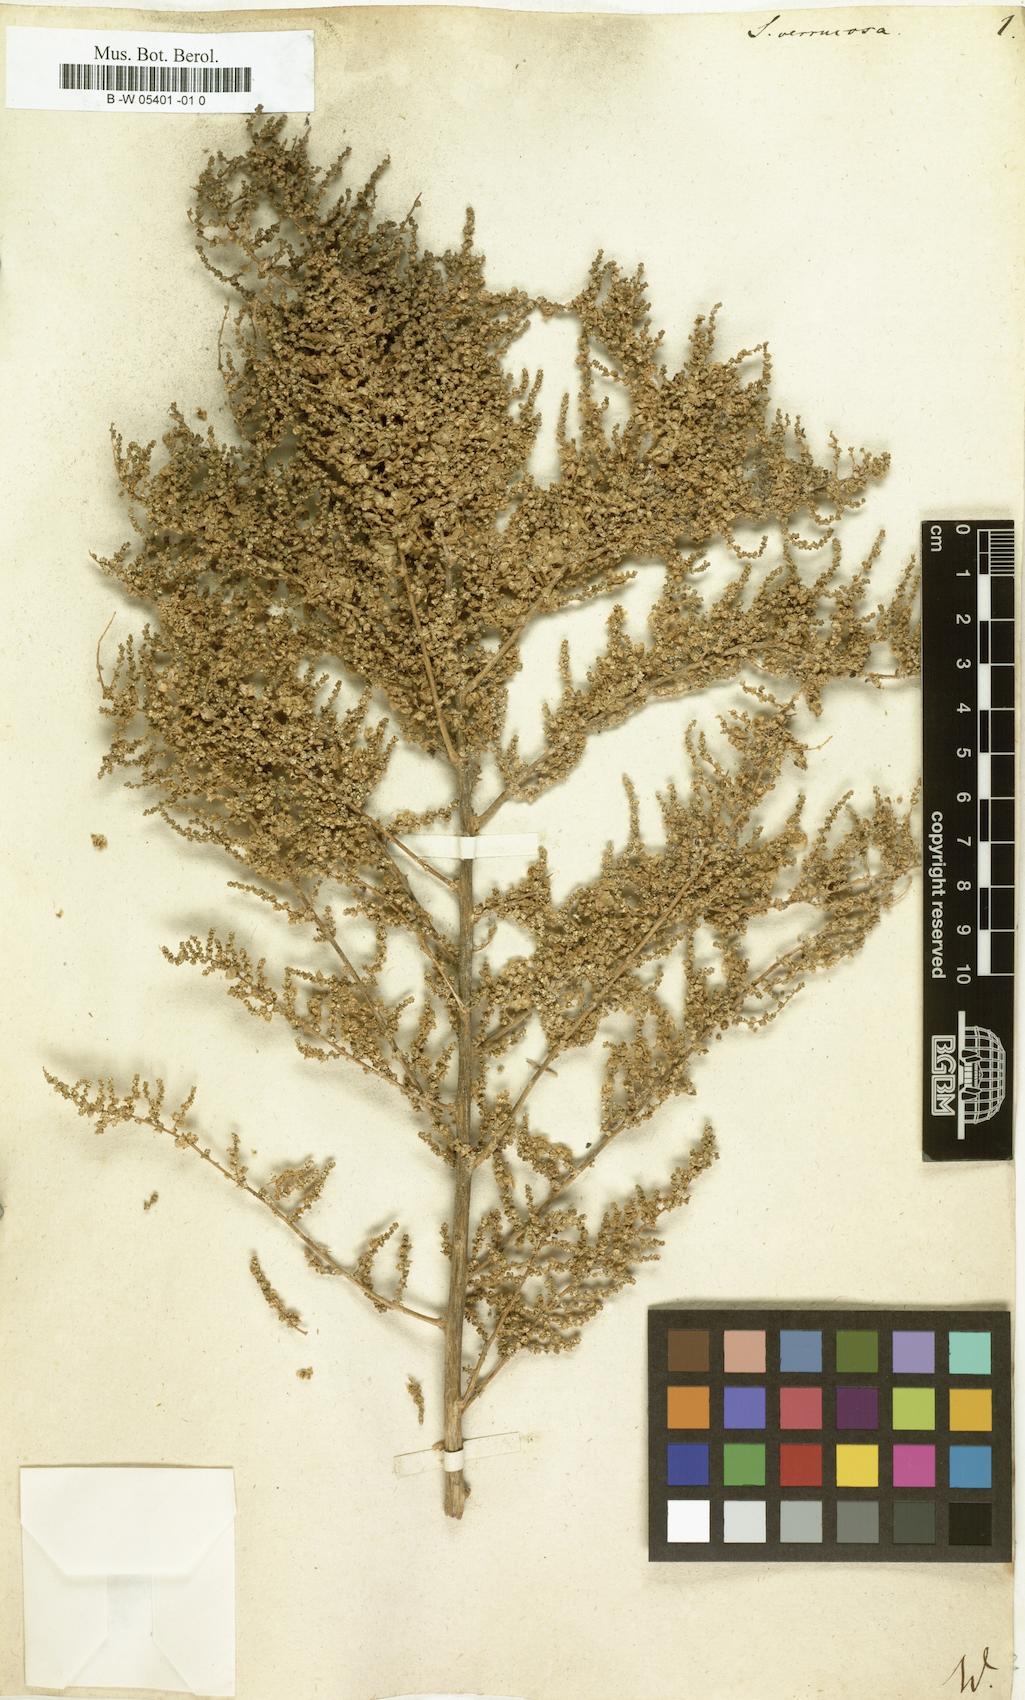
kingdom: Plantae
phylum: Tracheophyta
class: Magnoliopsida
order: Caryophyllales
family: Amaranthaceae
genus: Nitrosalsola
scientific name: Nitrosalsola dendroides
